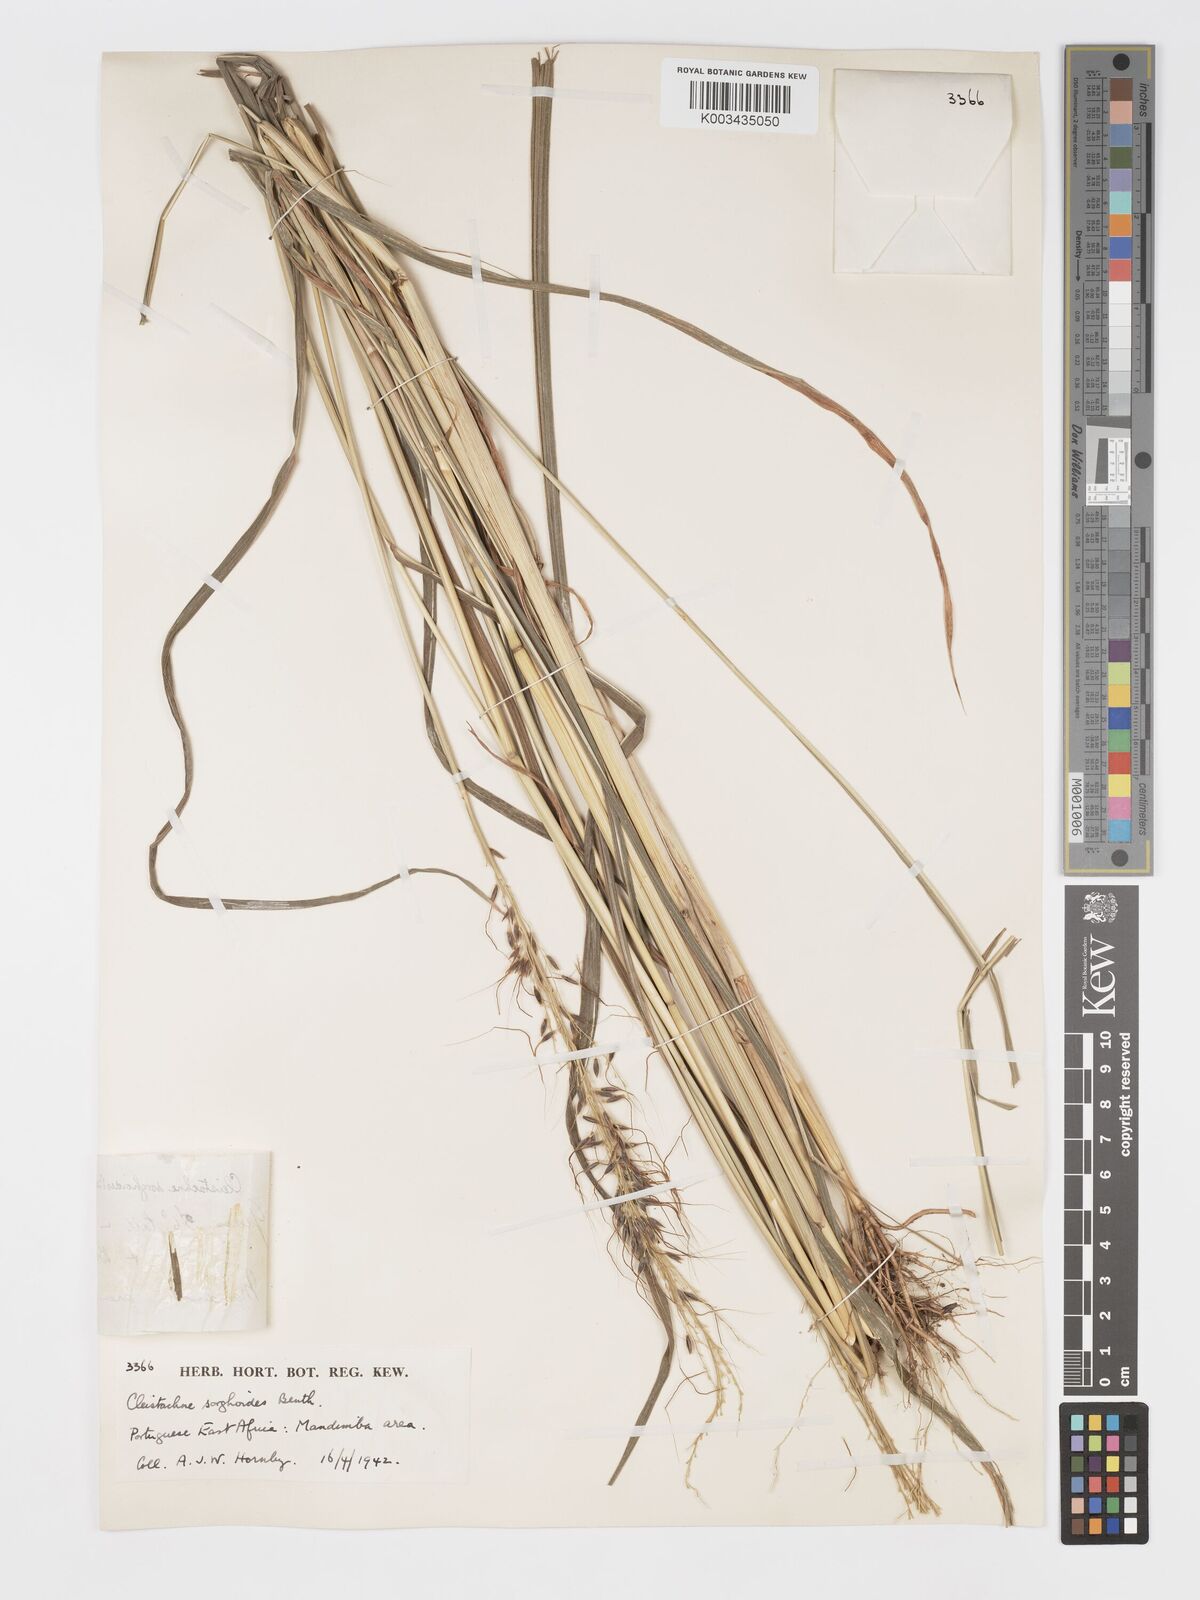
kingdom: Plantae
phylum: Tracheophyta
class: Liliopsida
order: Poales
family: Poaceae
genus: Cleistachne
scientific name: Cleistachne sorghoides
